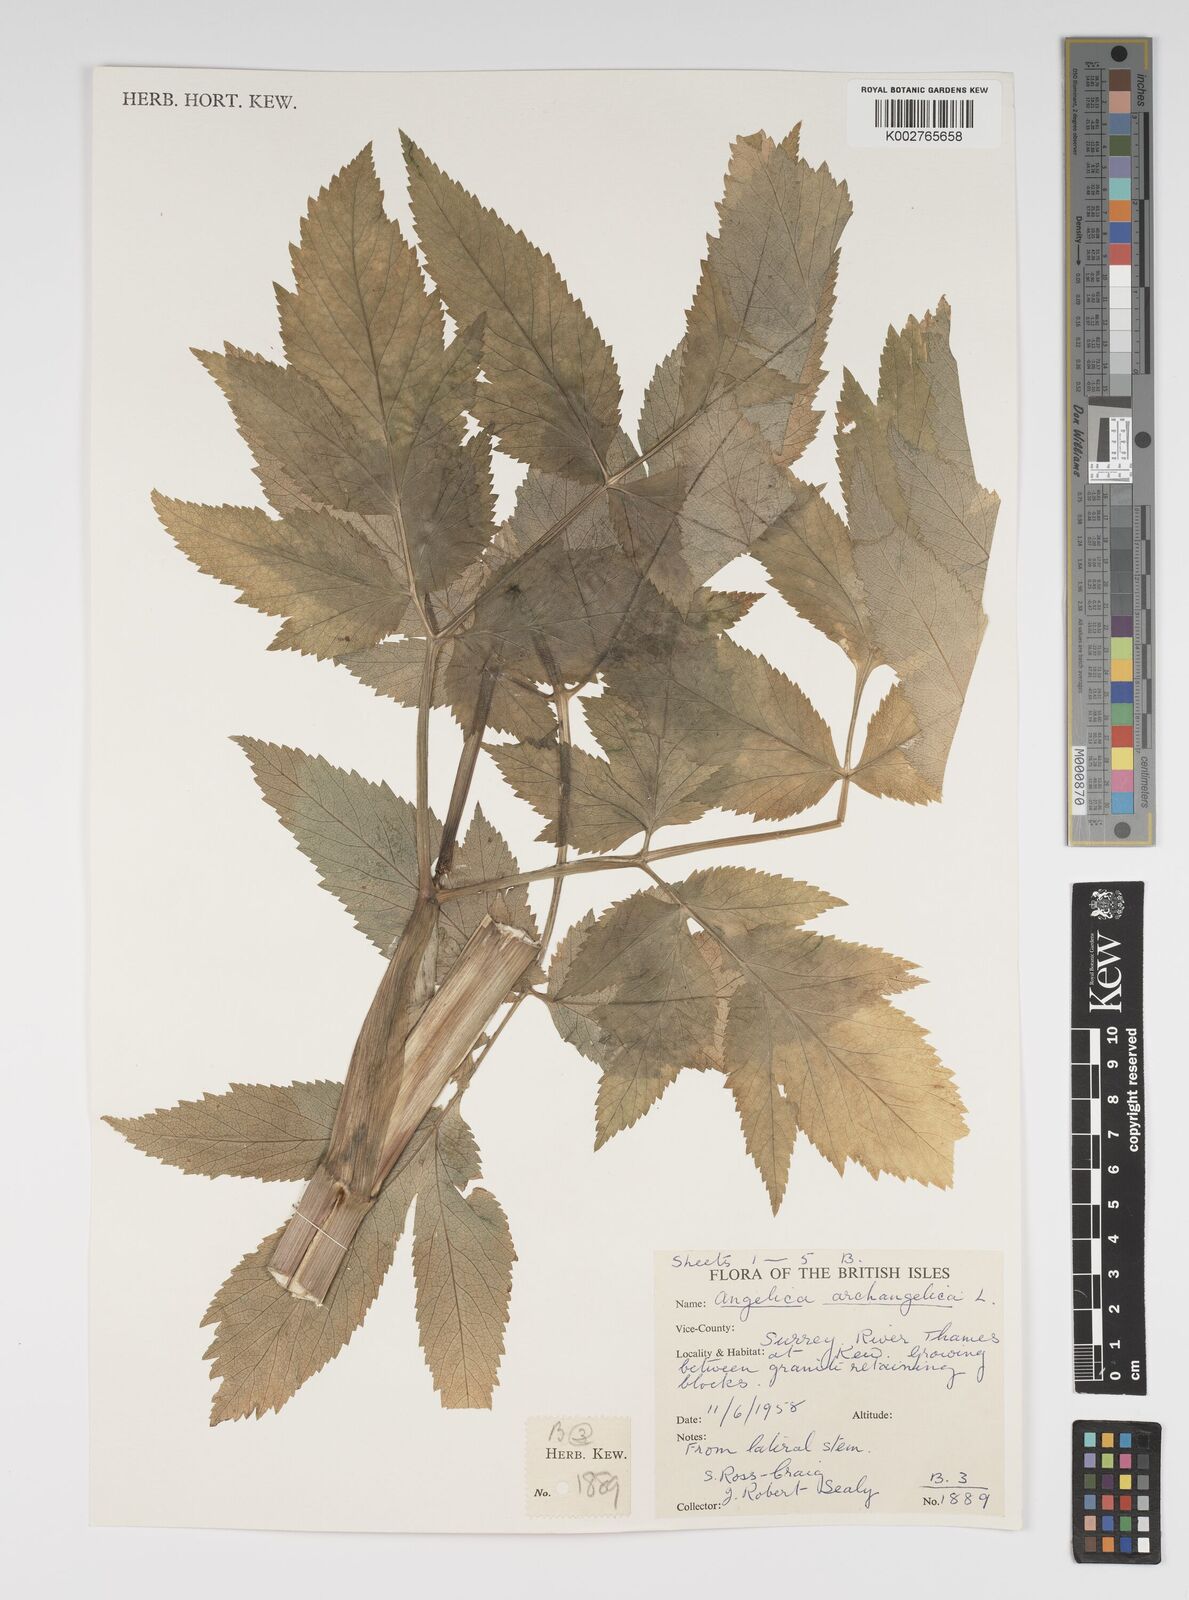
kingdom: Plantae
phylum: Tracheophyta
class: Magnoliopsida
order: Apiales
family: Apiaceae
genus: Angelica
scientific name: Angelica archangelica
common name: Garden angelica
